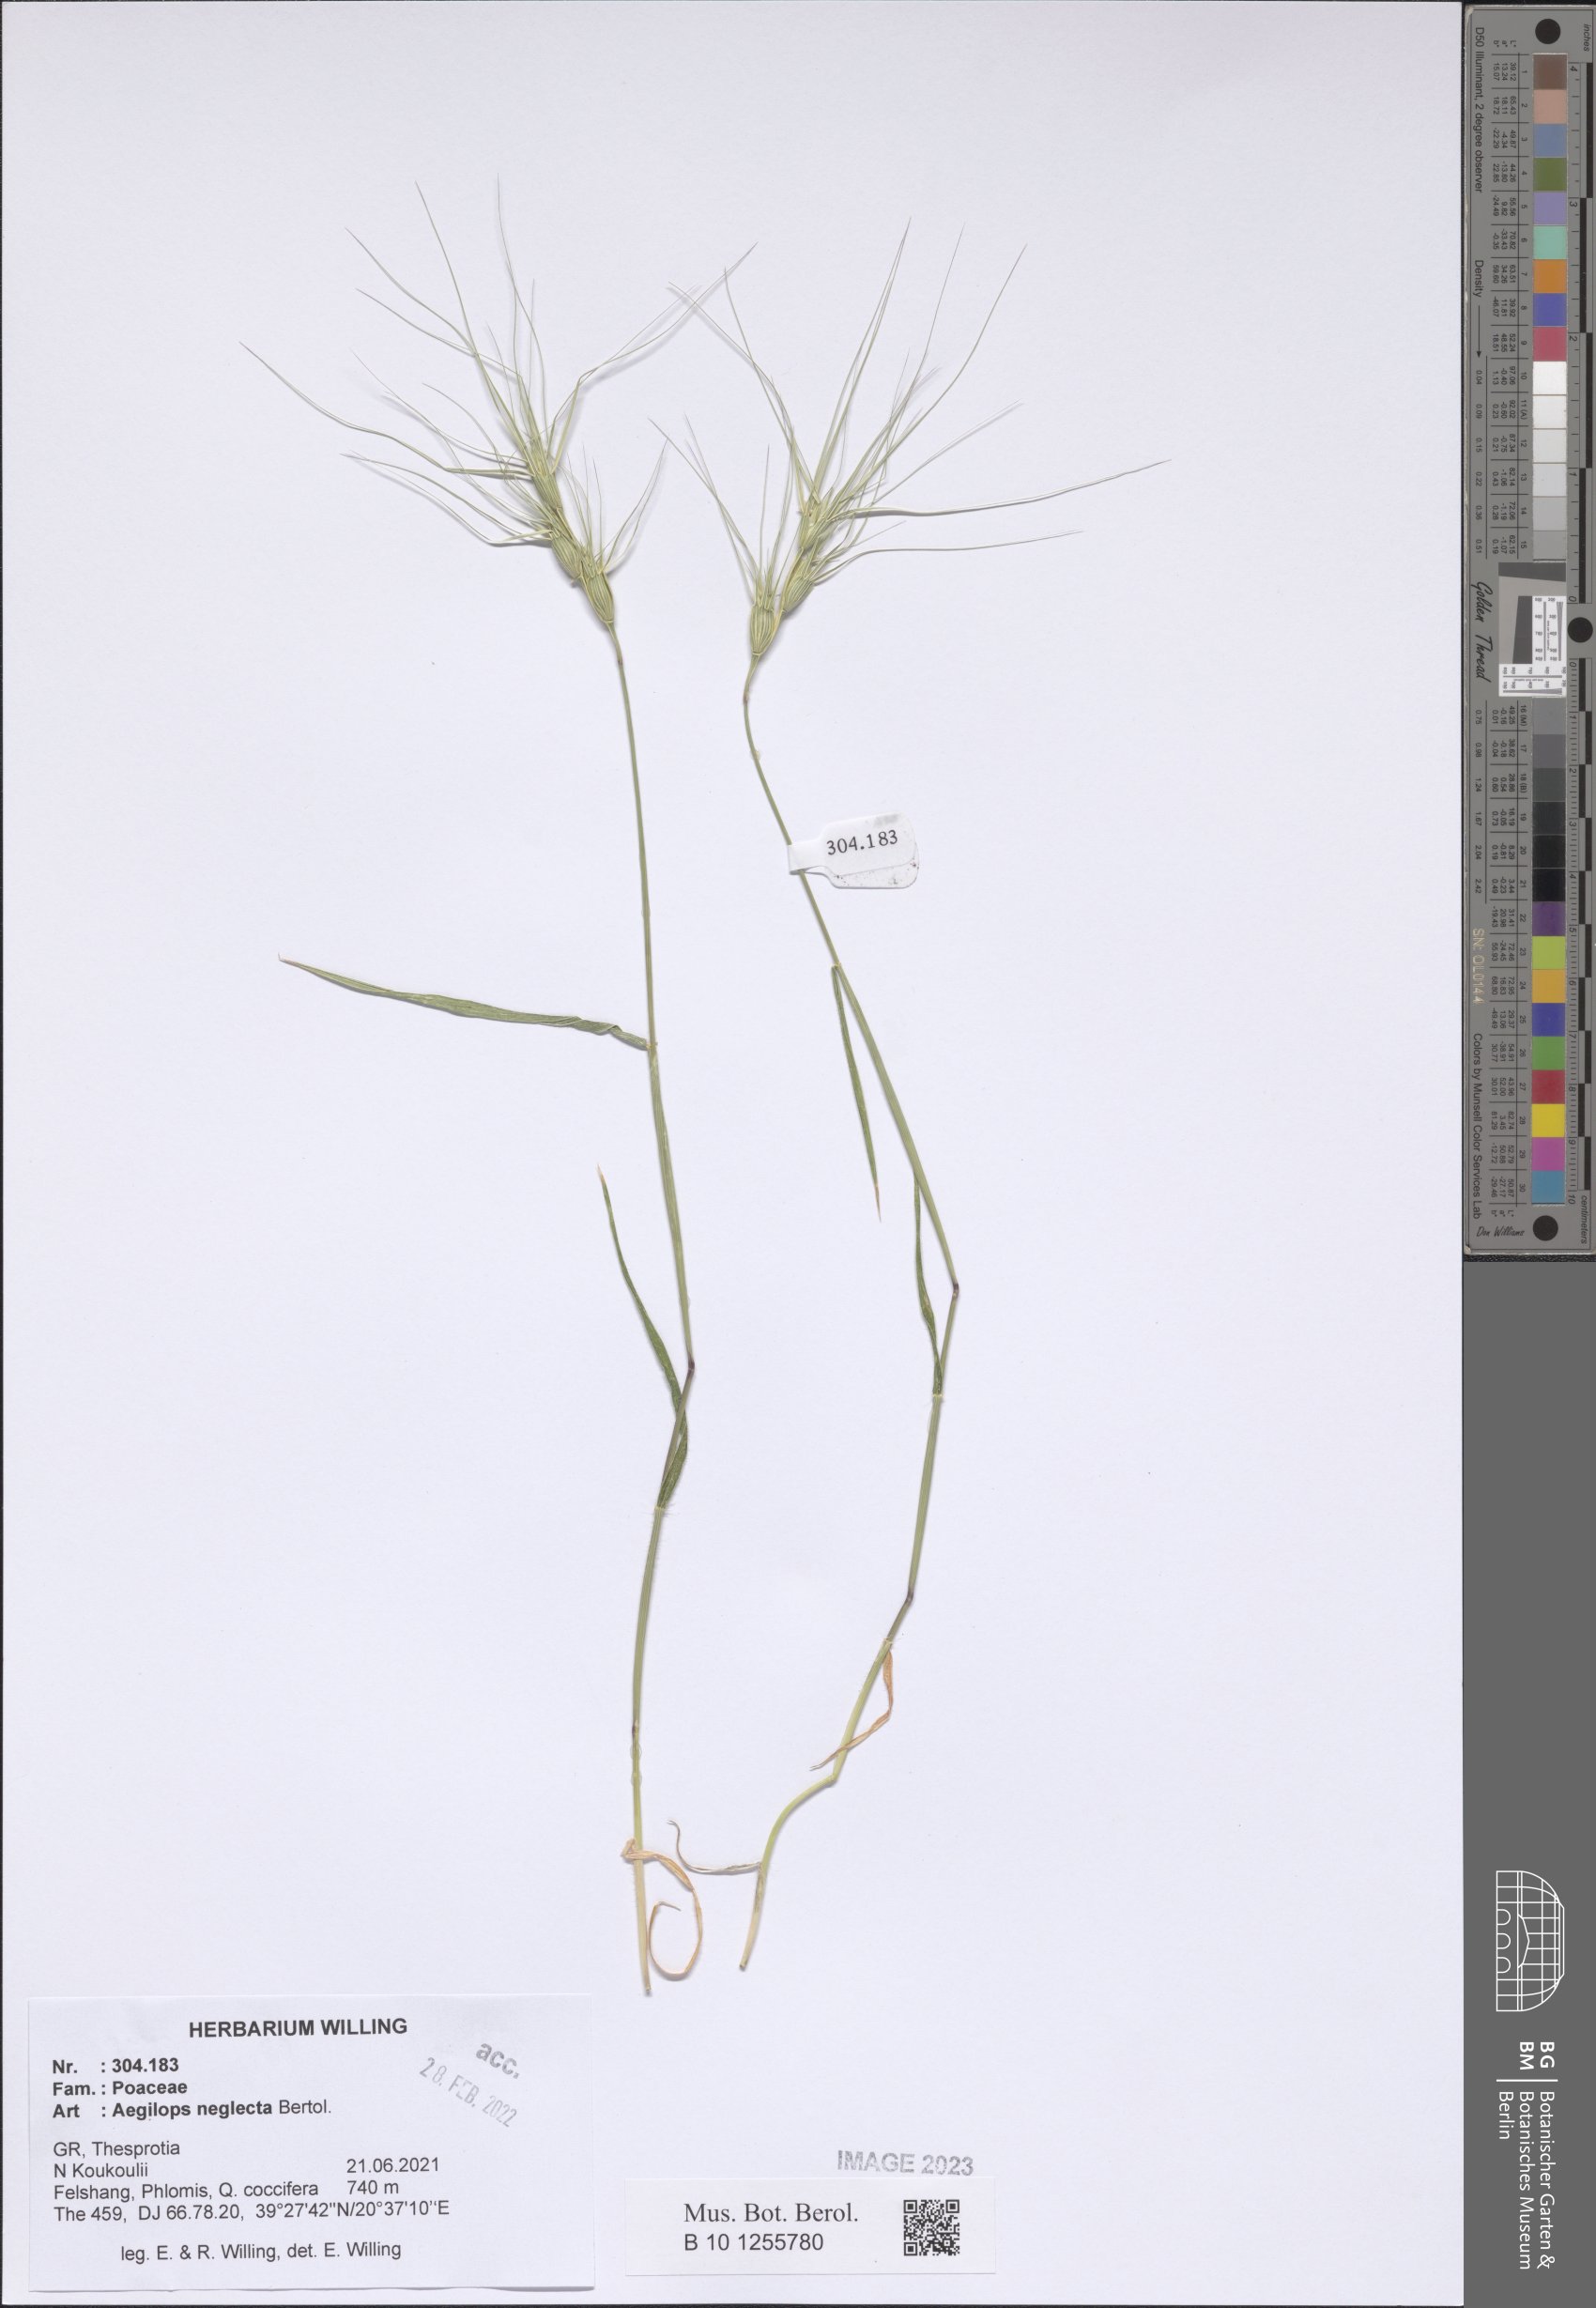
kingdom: Plantae
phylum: Tracheophyta
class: Liliopsida
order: Poales
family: Poaceae
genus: Aegilops
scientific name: Aegilops neglecta
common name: Three-awn goat grass
